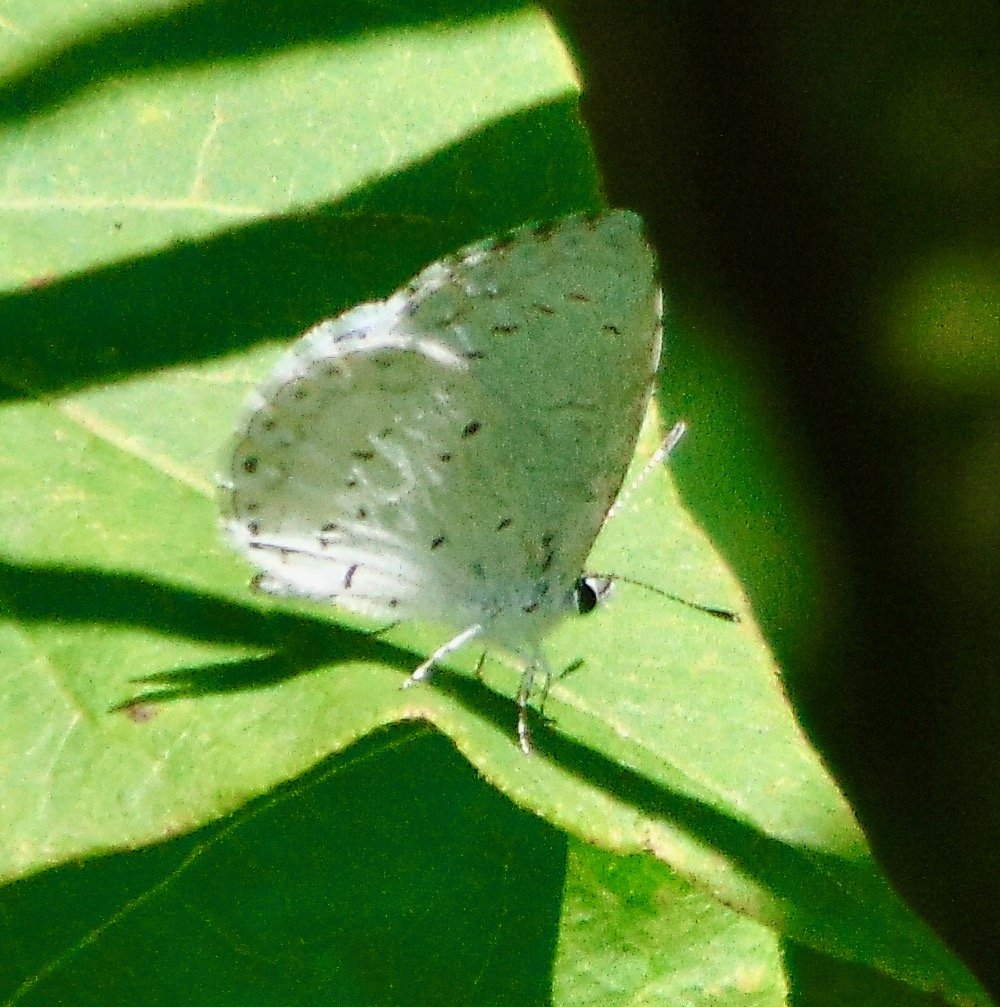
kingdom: Animalia
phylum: Arthropoda
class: Insecta
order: Lepidoptera
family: Lycaenidae
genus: Cyaniris
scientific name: Cyaniris neglecta
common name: Summer Azure
